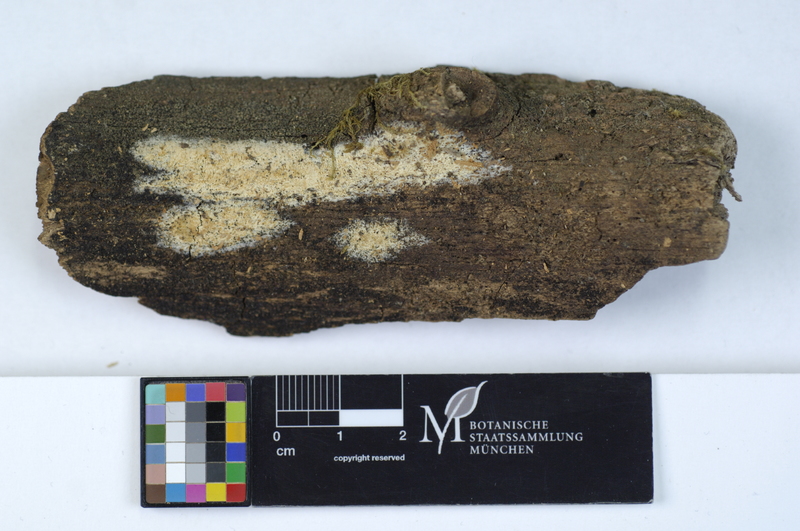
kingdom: Fungi
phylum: Basidiomycota
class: Agaricomycetes
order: Hymenochaetales
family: Rickenellaceae
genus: Sidera
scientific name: Sidera lenis
